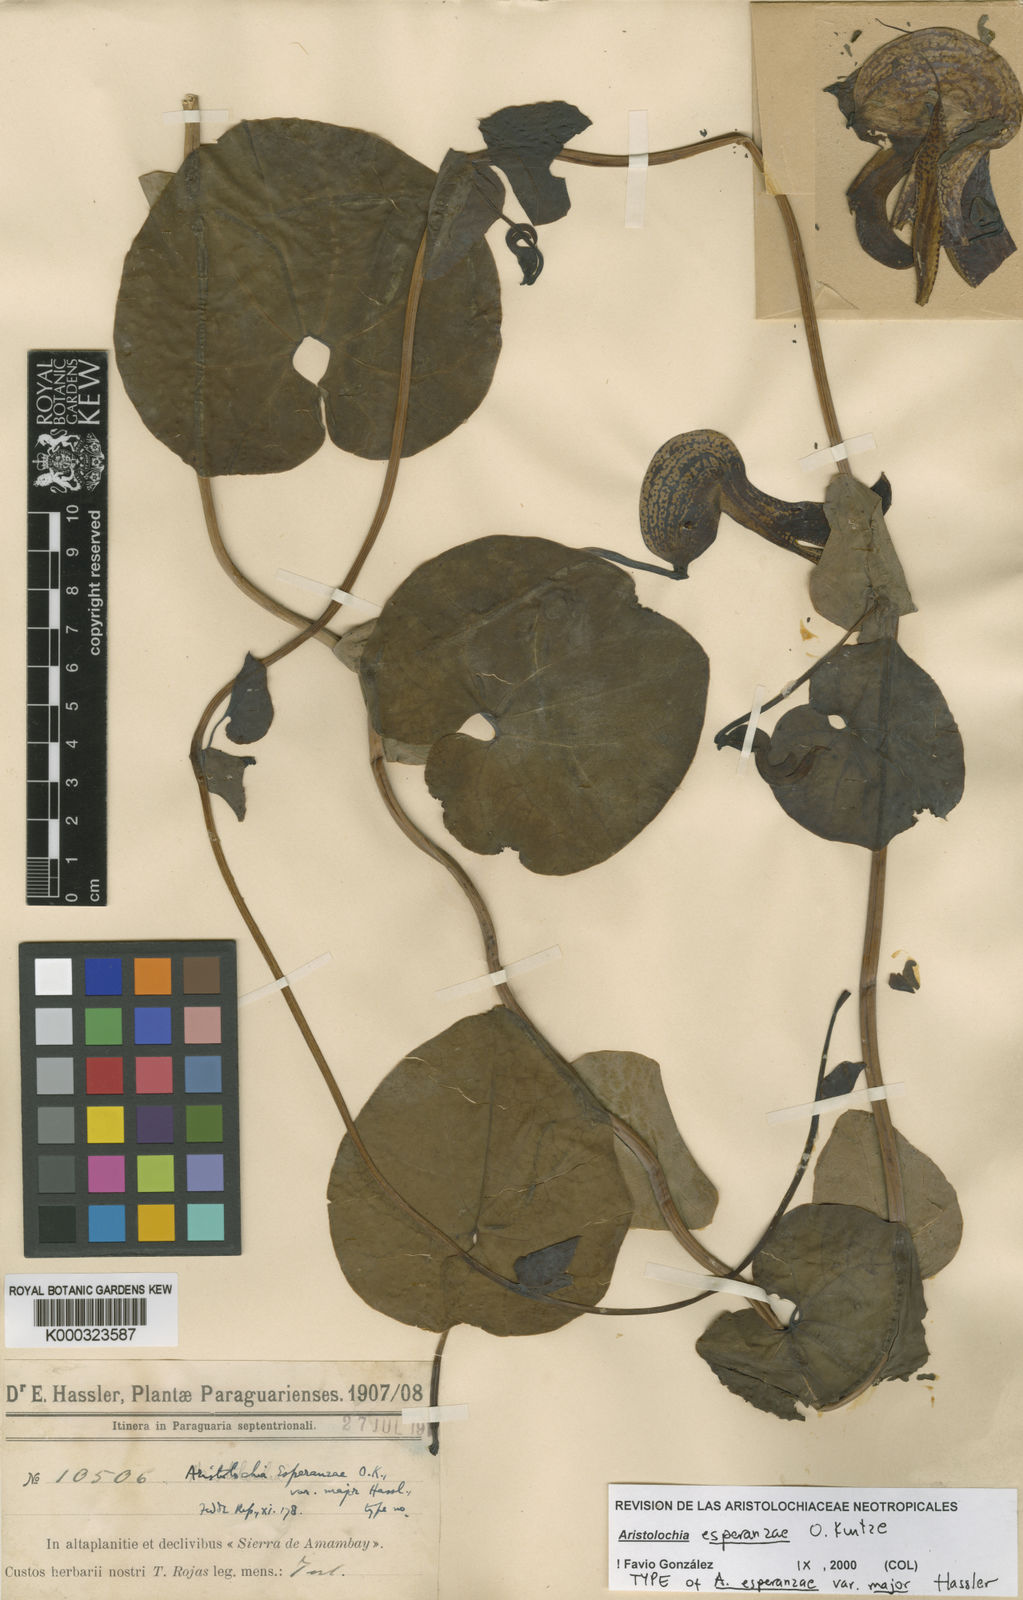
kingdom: Plantae
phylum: Tracheophyta
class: Magnoliopsida
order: Piperales
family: Aristolochiaceae
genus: Aristolochia
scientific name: Aristolochia esperanzae
